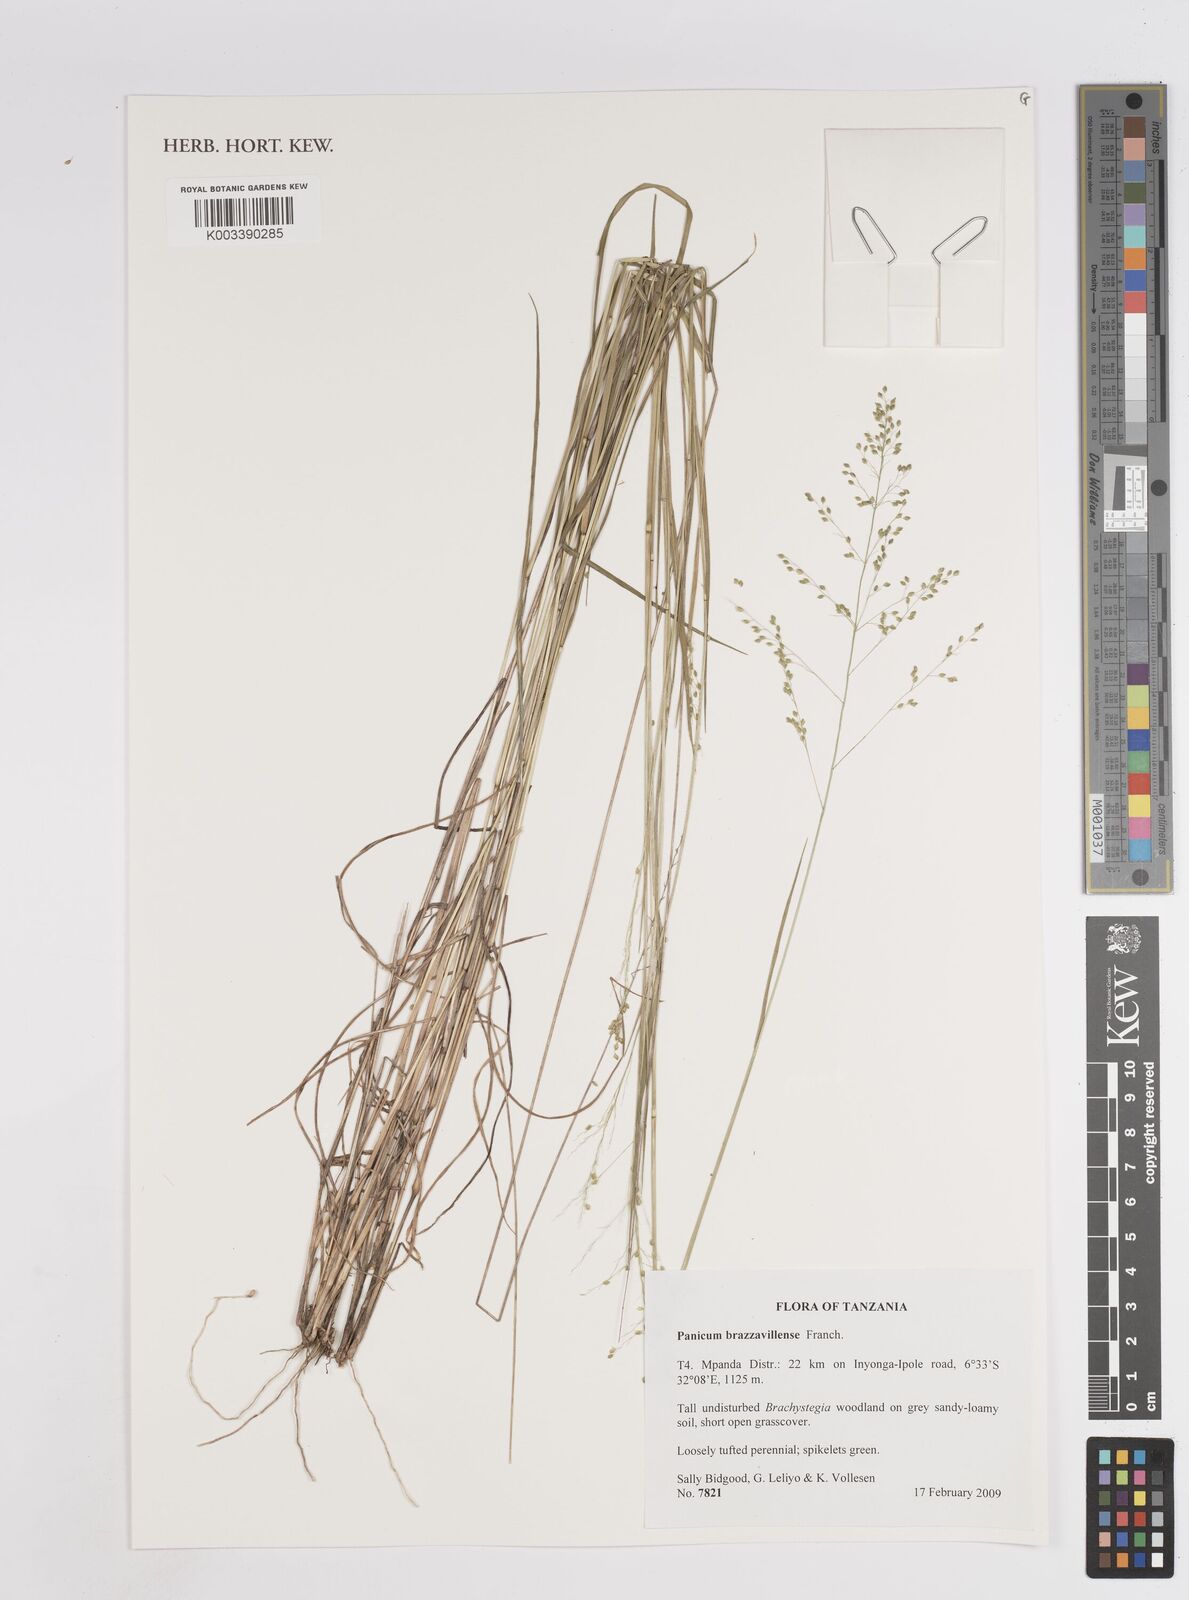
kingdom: Plantae
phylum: Tracheophyta
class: Liliopsida
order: Poales
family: Poaceae
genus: Trichanthecium
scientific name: Trichanthecium brazzavillense
